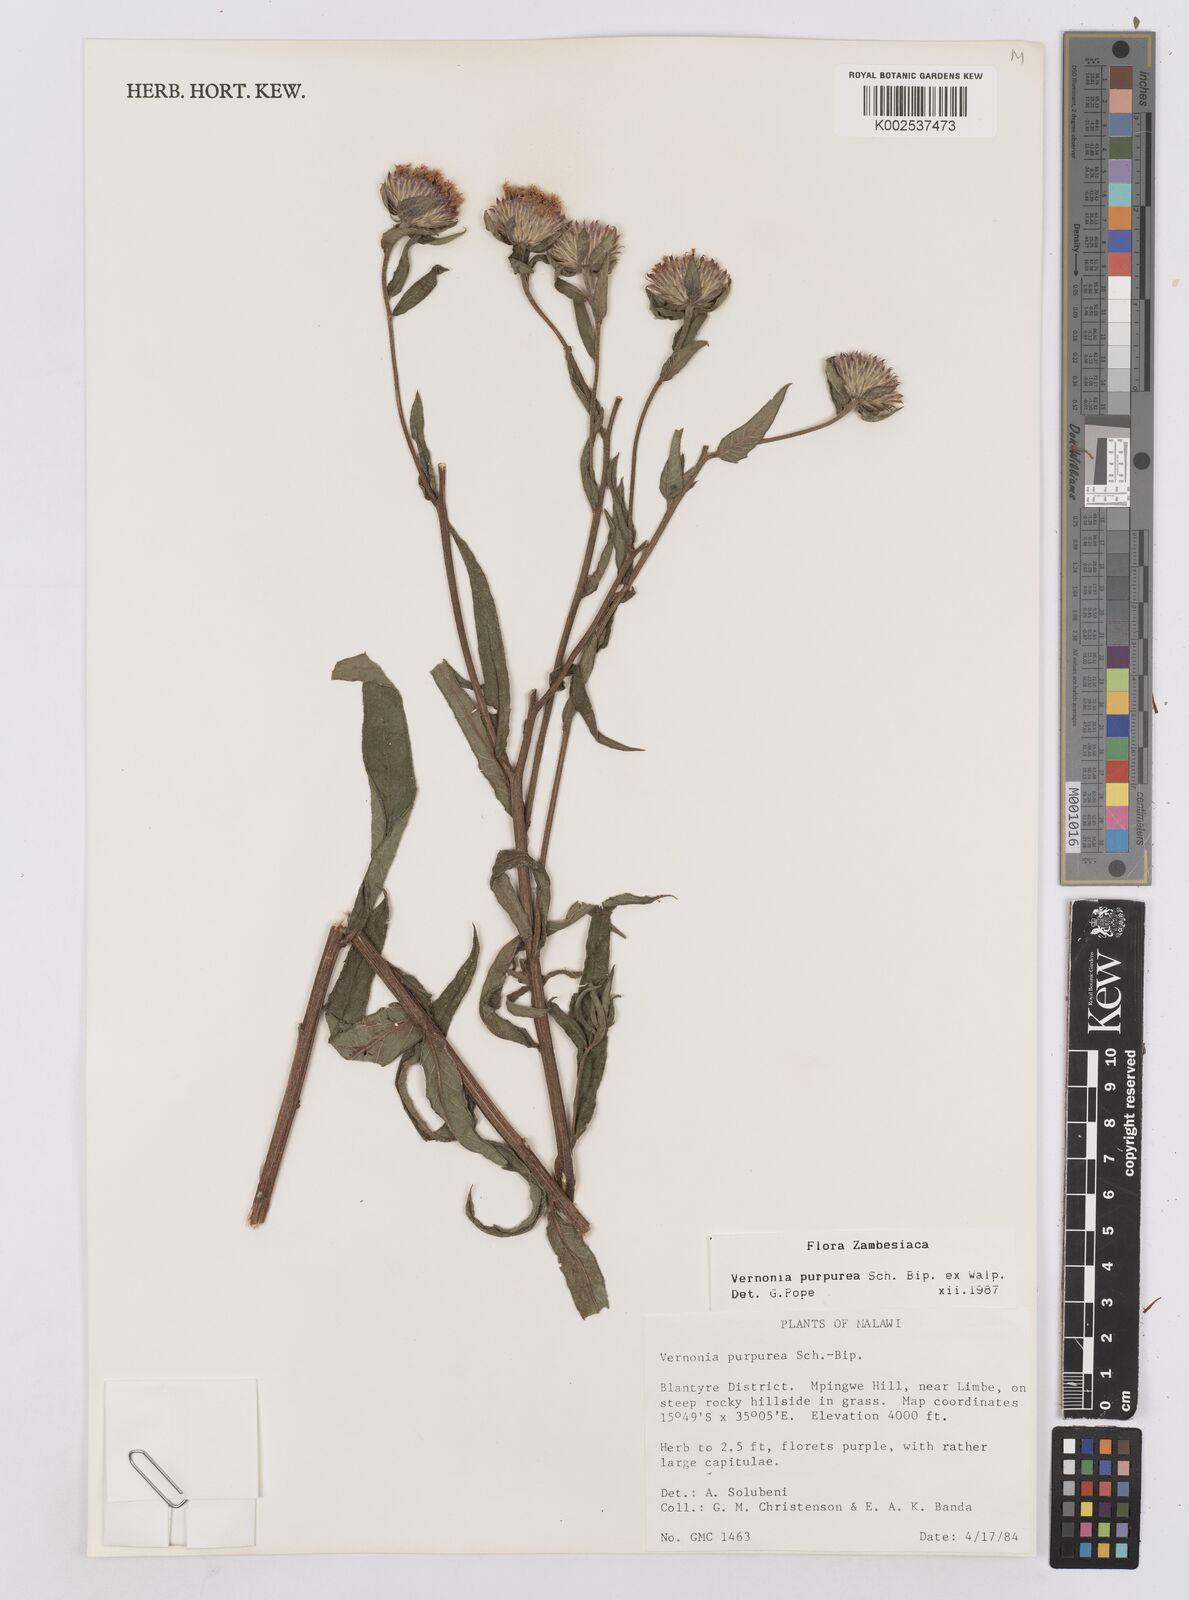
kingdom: Plantae
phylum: Tracheophyta
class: Magnoliopsida
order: Asterales
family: Asteraceae
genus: Nothovernonia
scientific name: Nothovernonia purpurea
